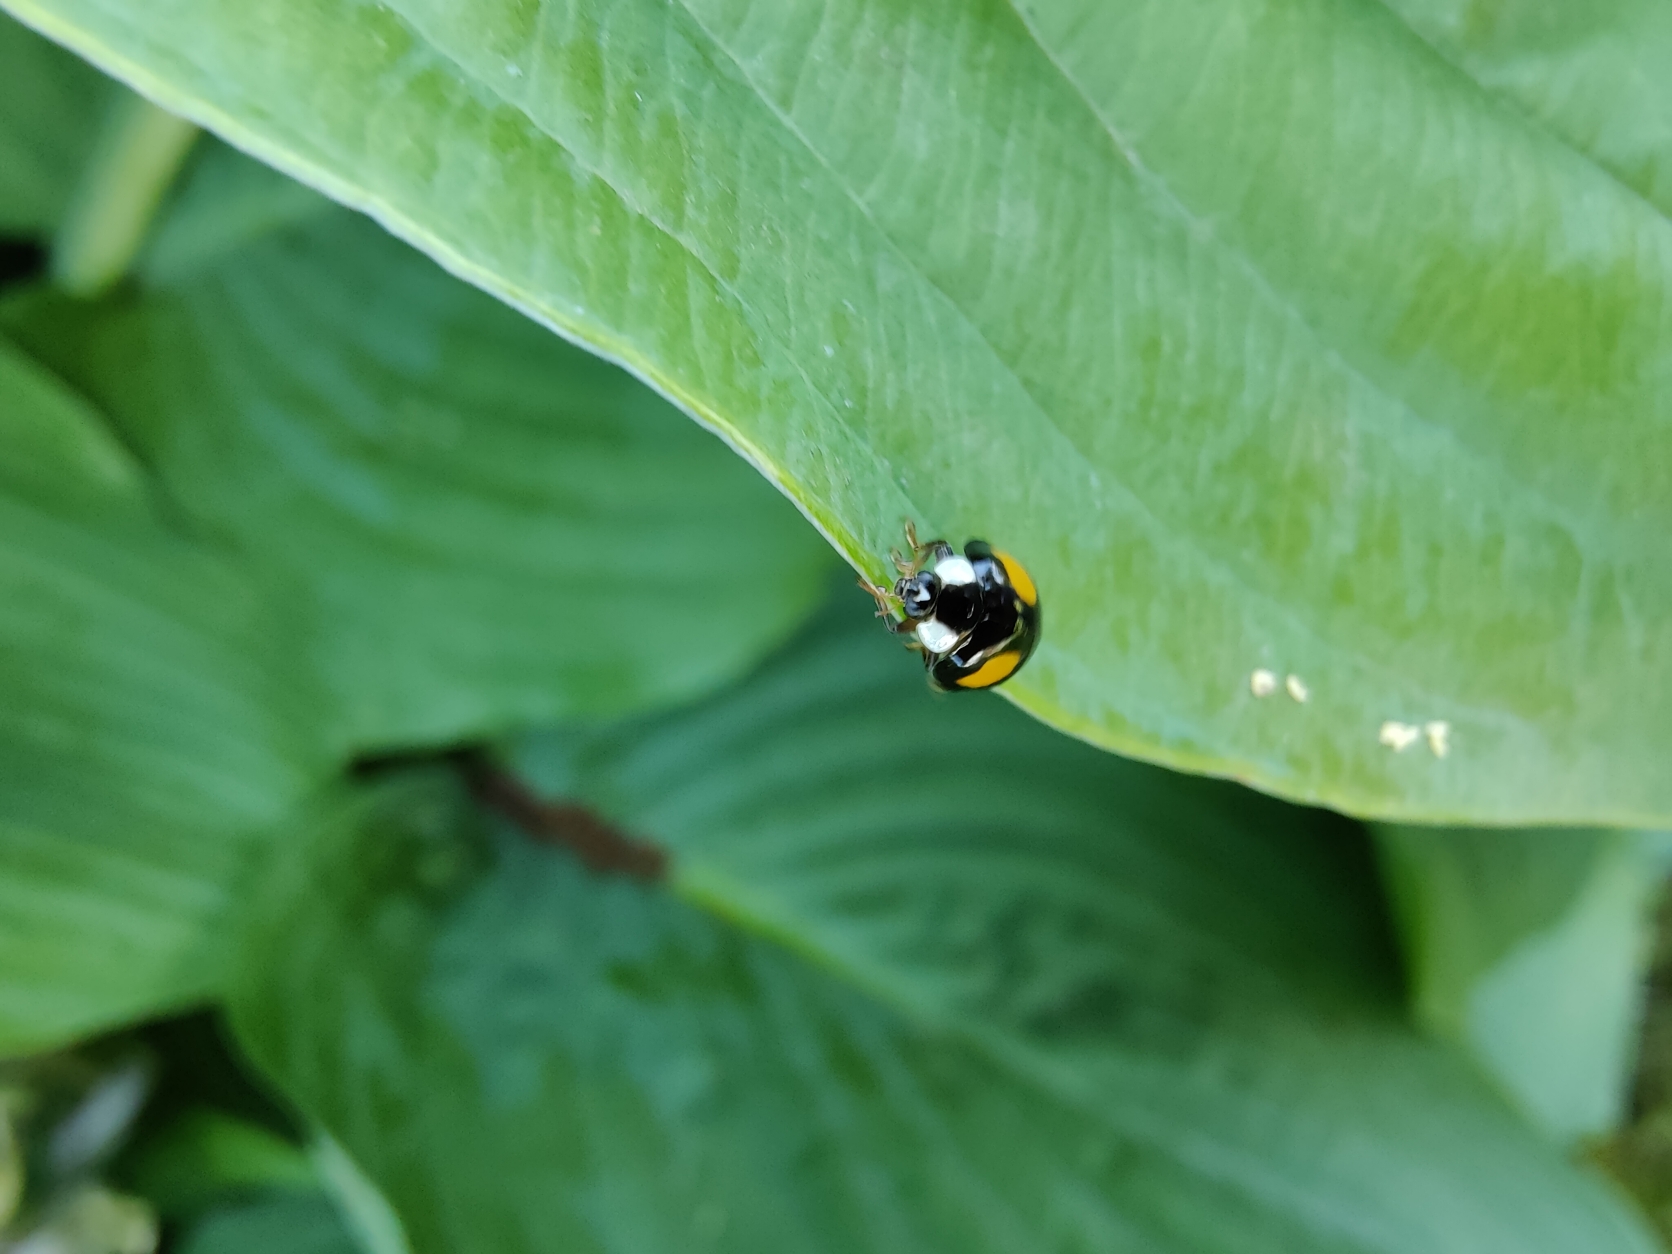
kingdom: Animalia
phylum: Arthropoda
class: Insecta
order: Coleoptera
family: Coccinellidae
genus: Harmonia
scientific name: Harmonia axyridis
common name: Harlekinmariehøne
